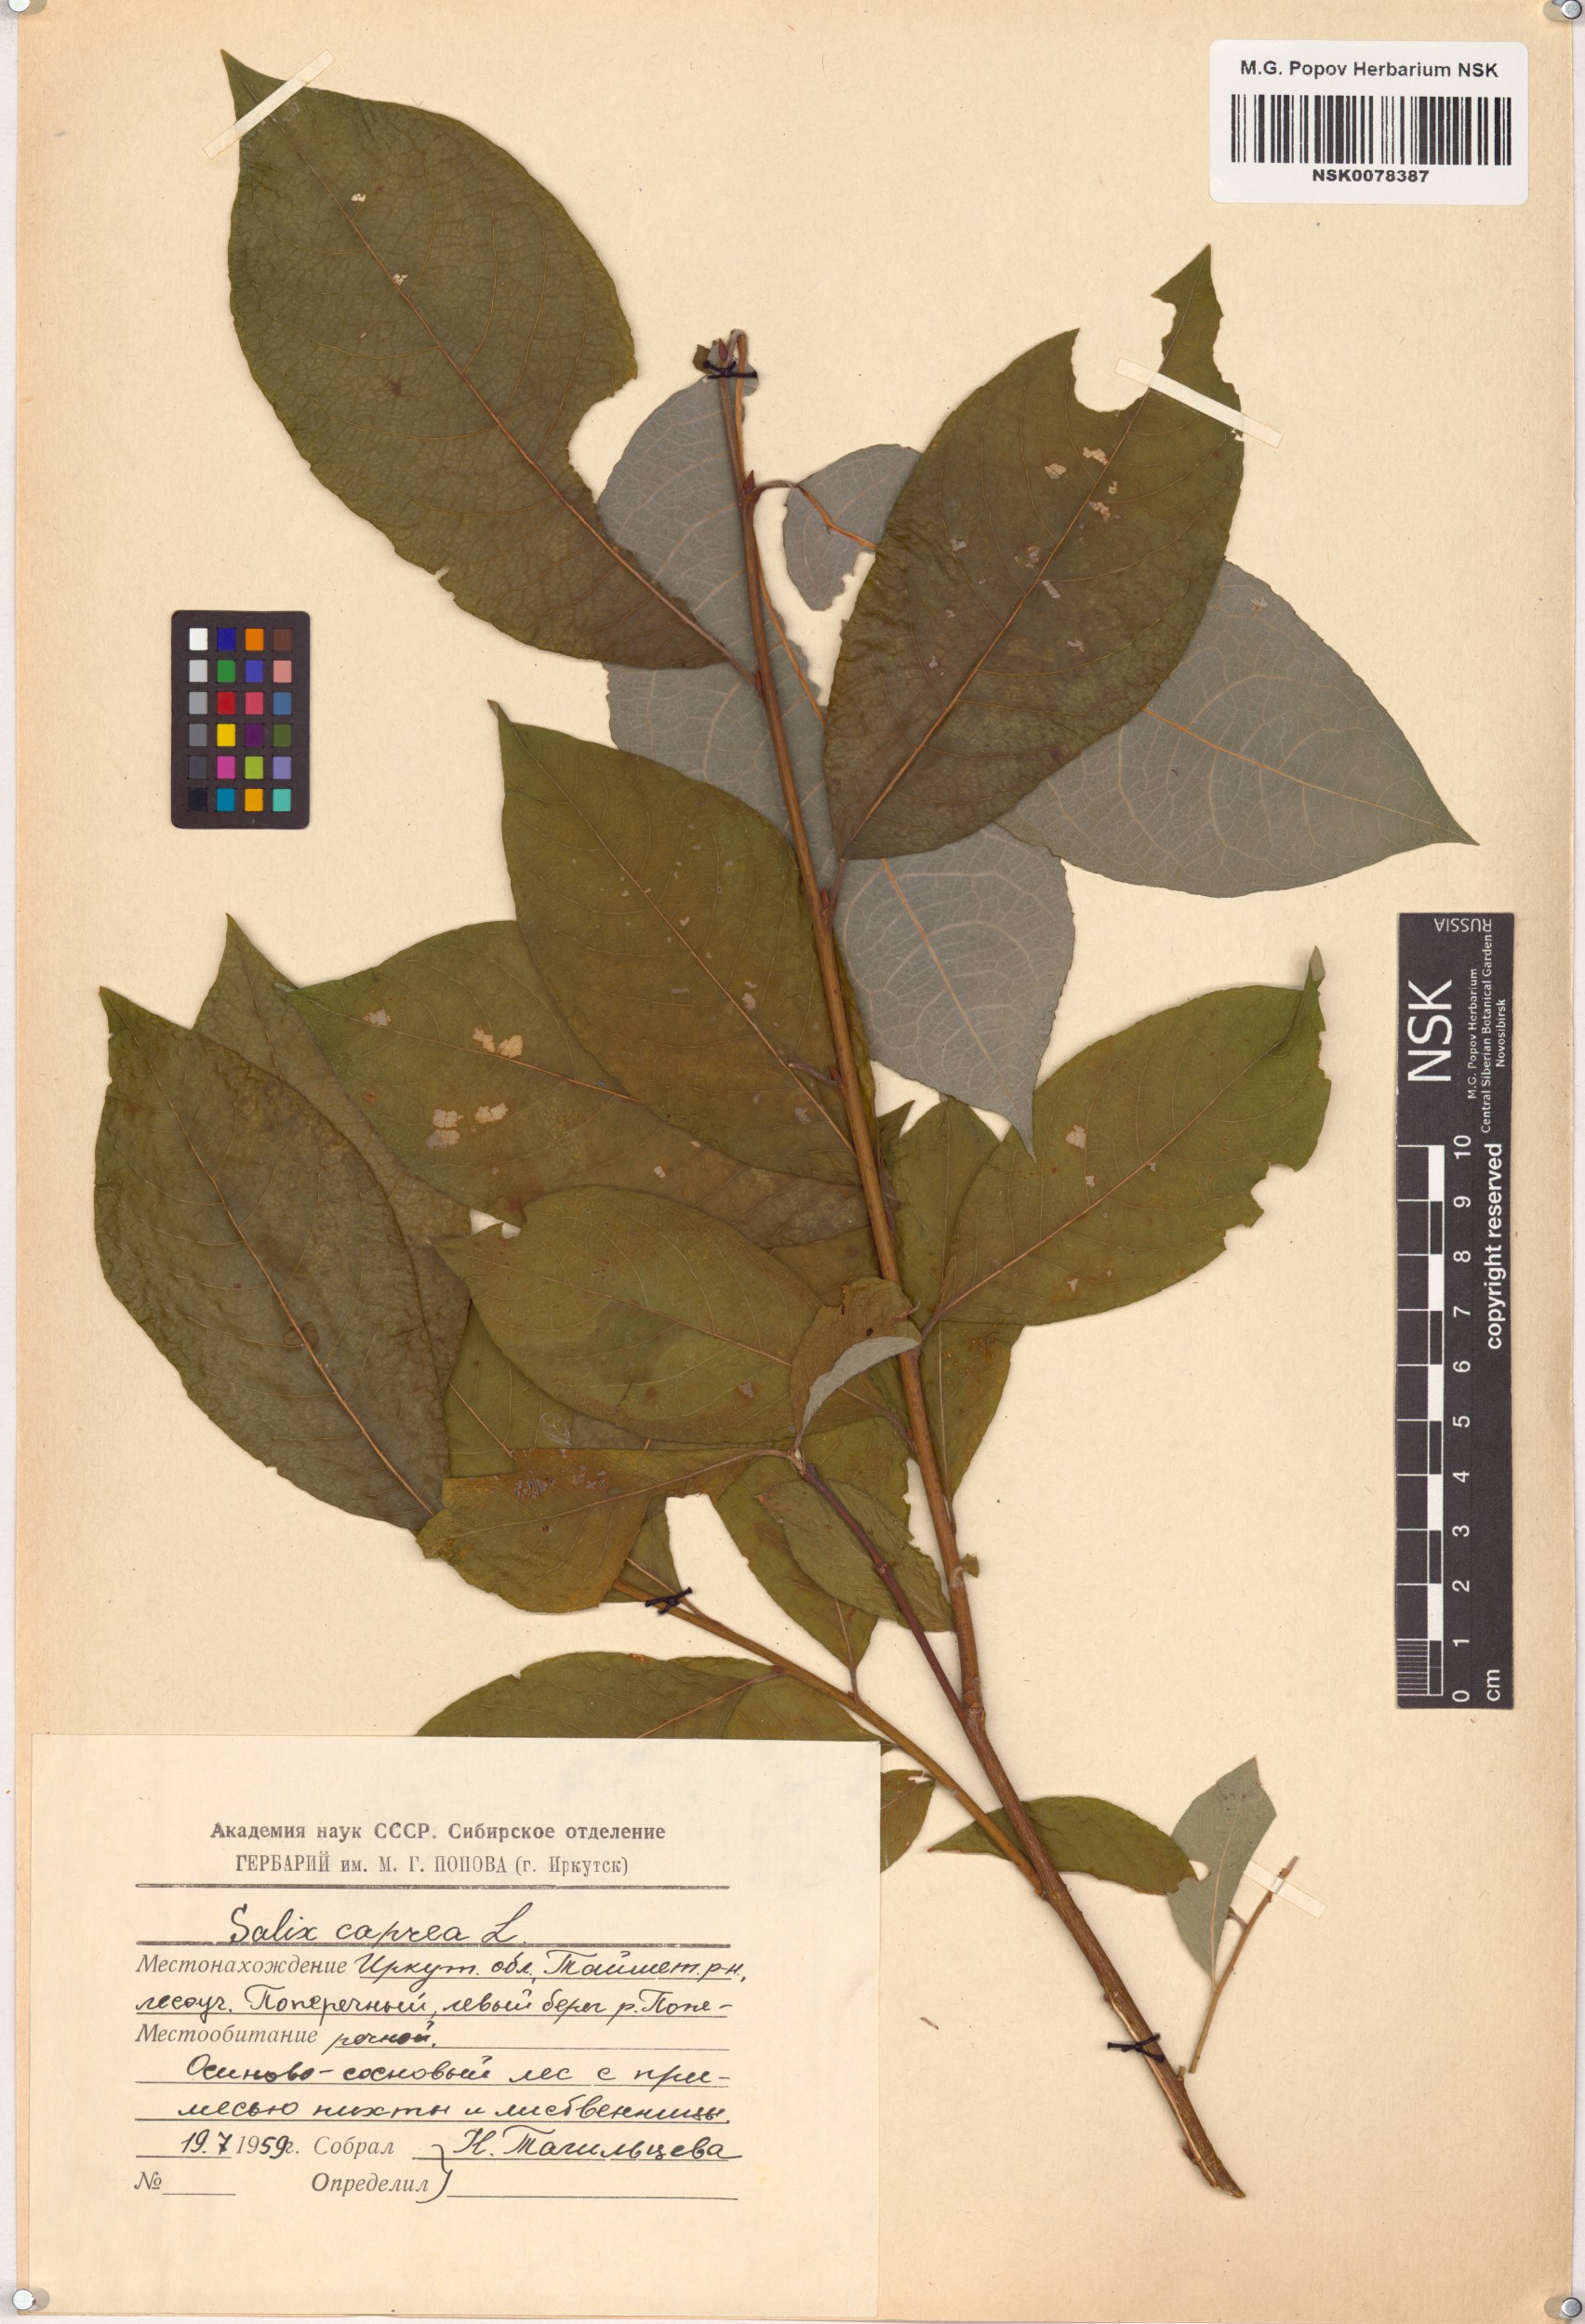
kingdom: Plantae
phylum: Tracheophyta
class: Magnoliopsida
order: Malpighiales
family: Salicaceae
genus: Salix
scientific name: Salix caprea
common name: Goat willow
